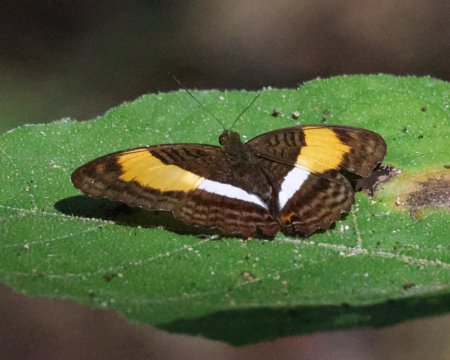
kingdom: Animalia
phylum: Arthropoda
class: Insecta
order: Lepidoptera
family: Nymphalidae
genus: Limenitis
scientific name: Limenitis cocala
